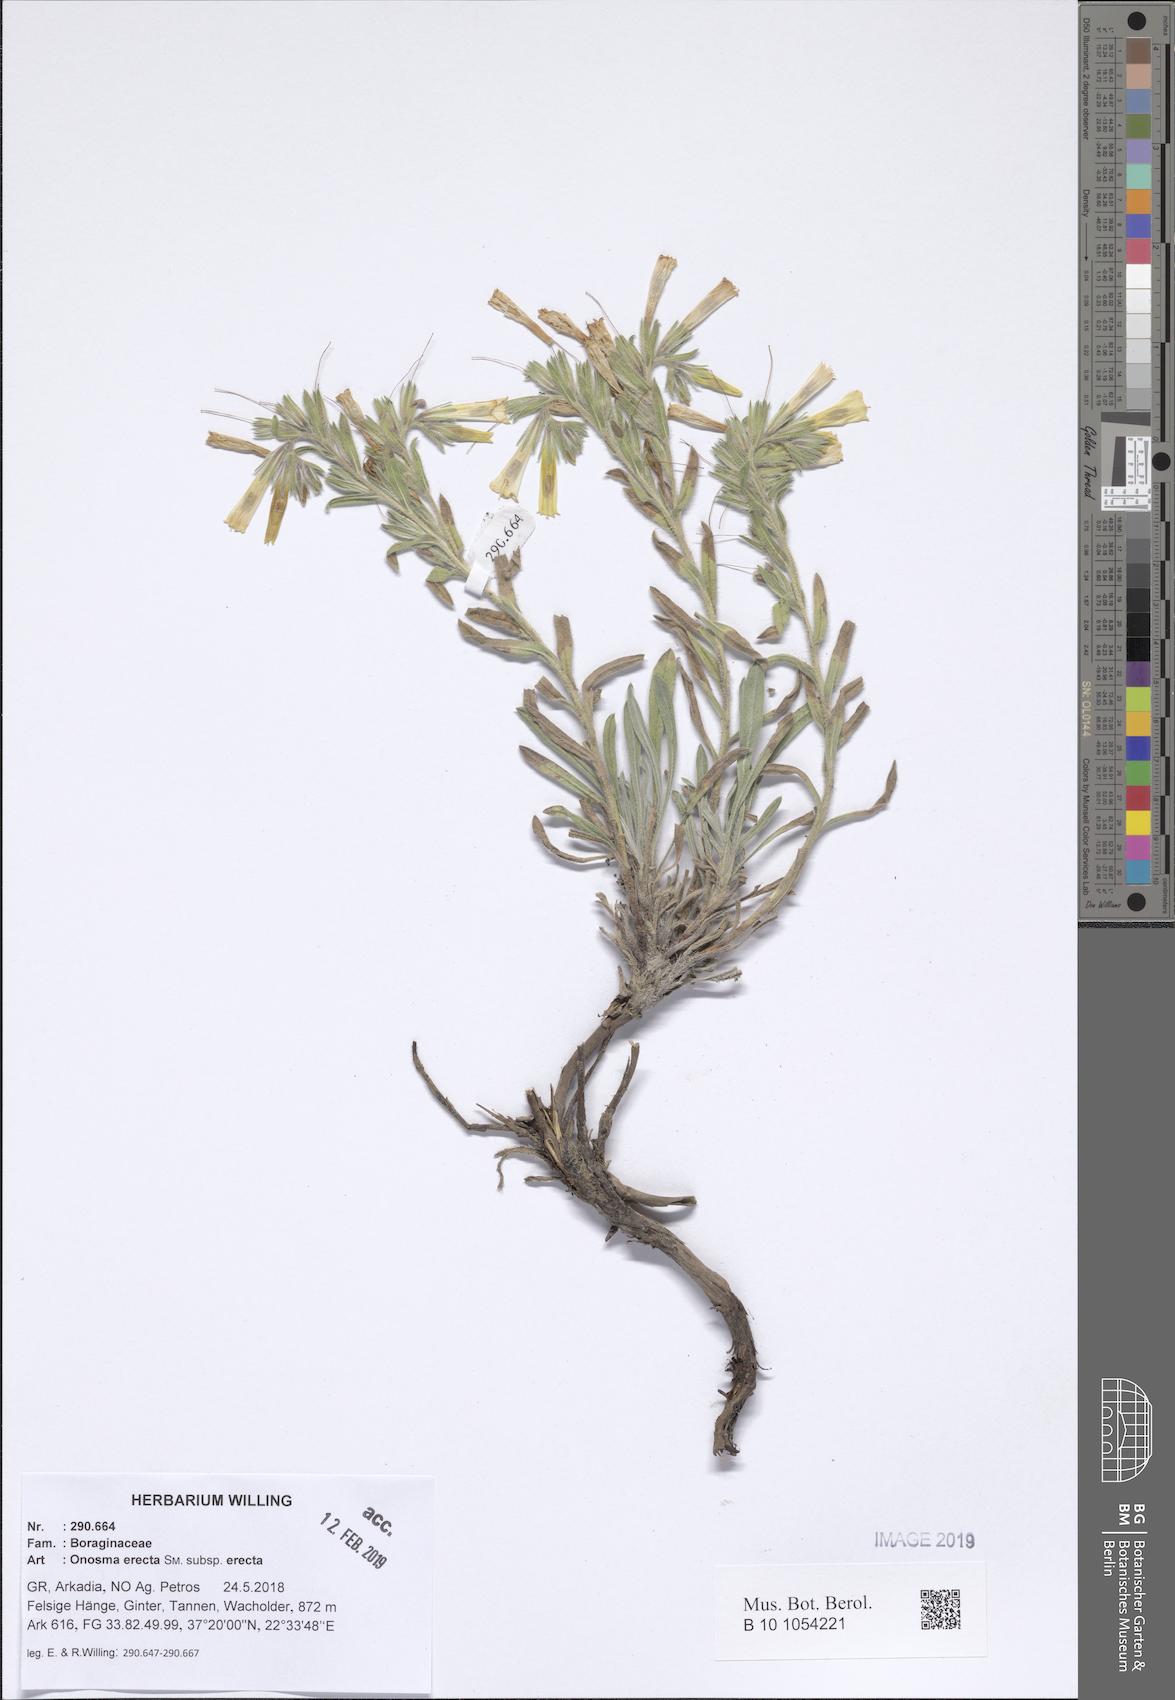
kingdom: Plantae
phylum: Tracheophyta
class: Magnoliopsida
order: Boraginales
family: Boraginaceae
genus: Onosma
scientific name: Onosma erecta
